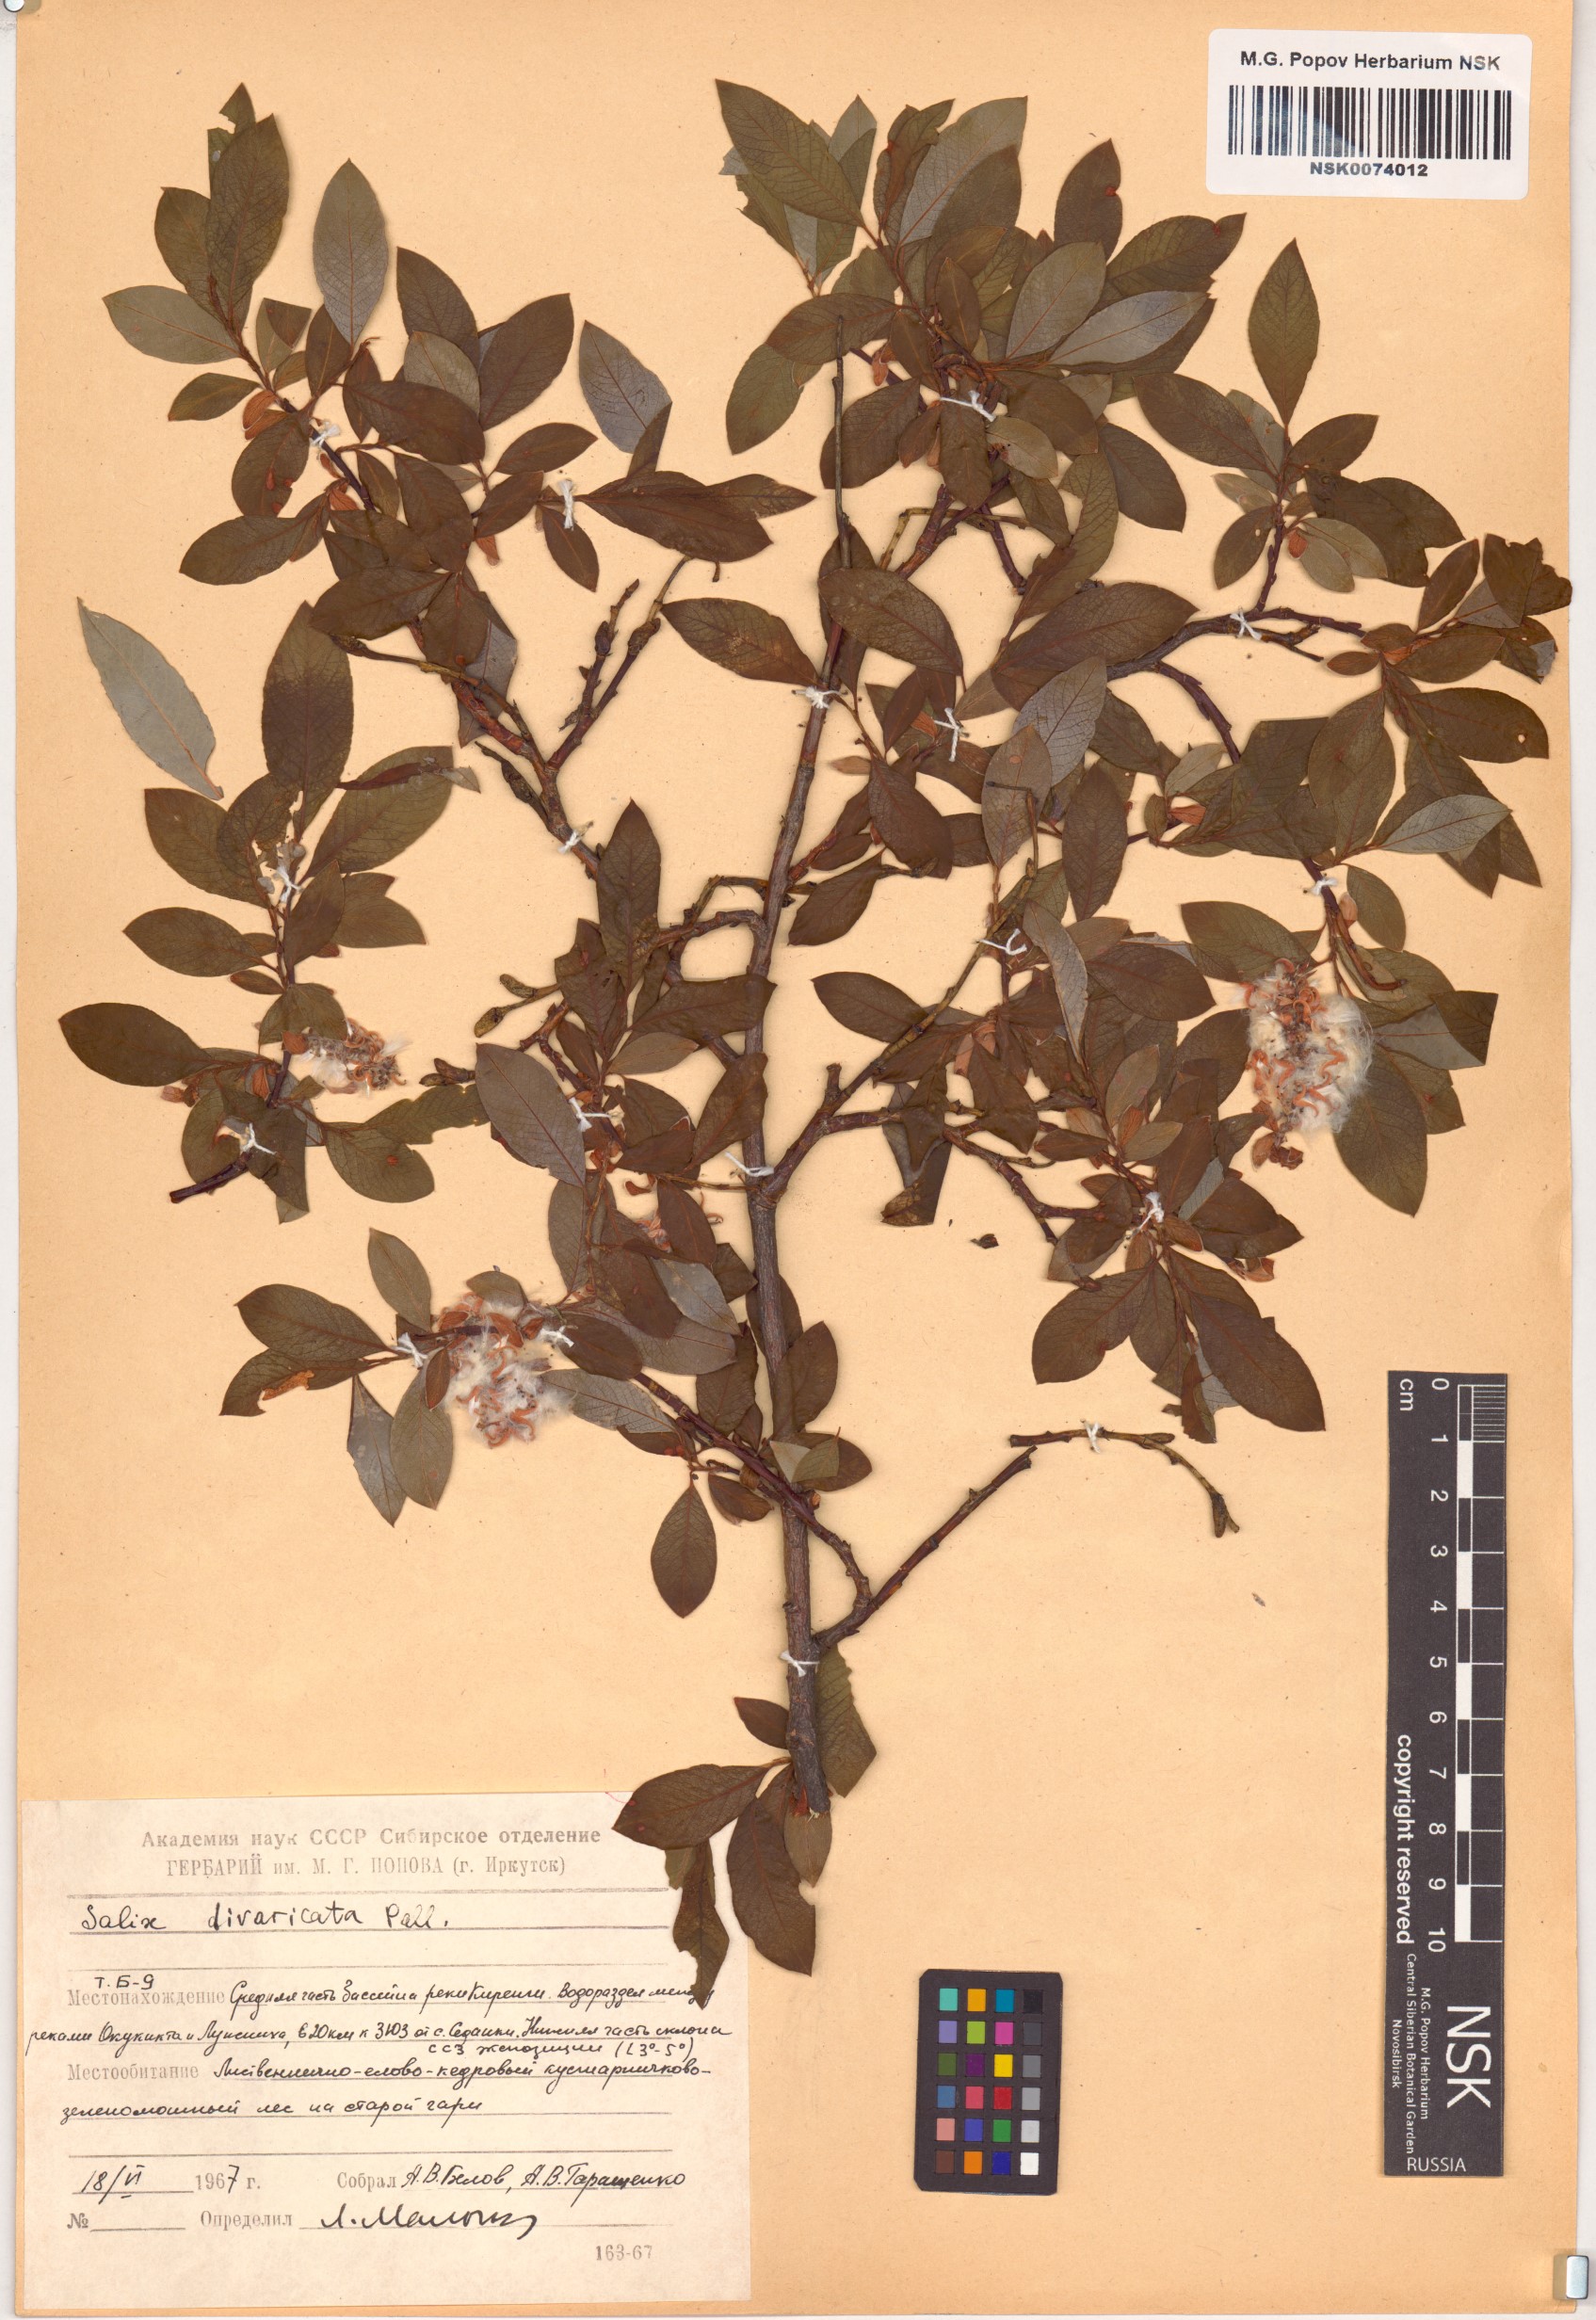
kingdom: Plantae
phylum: Tracheophyta
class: Magnoliopsida
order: Malpighiales
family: Salicaceae
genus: Salix
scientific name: Salix divaricata
